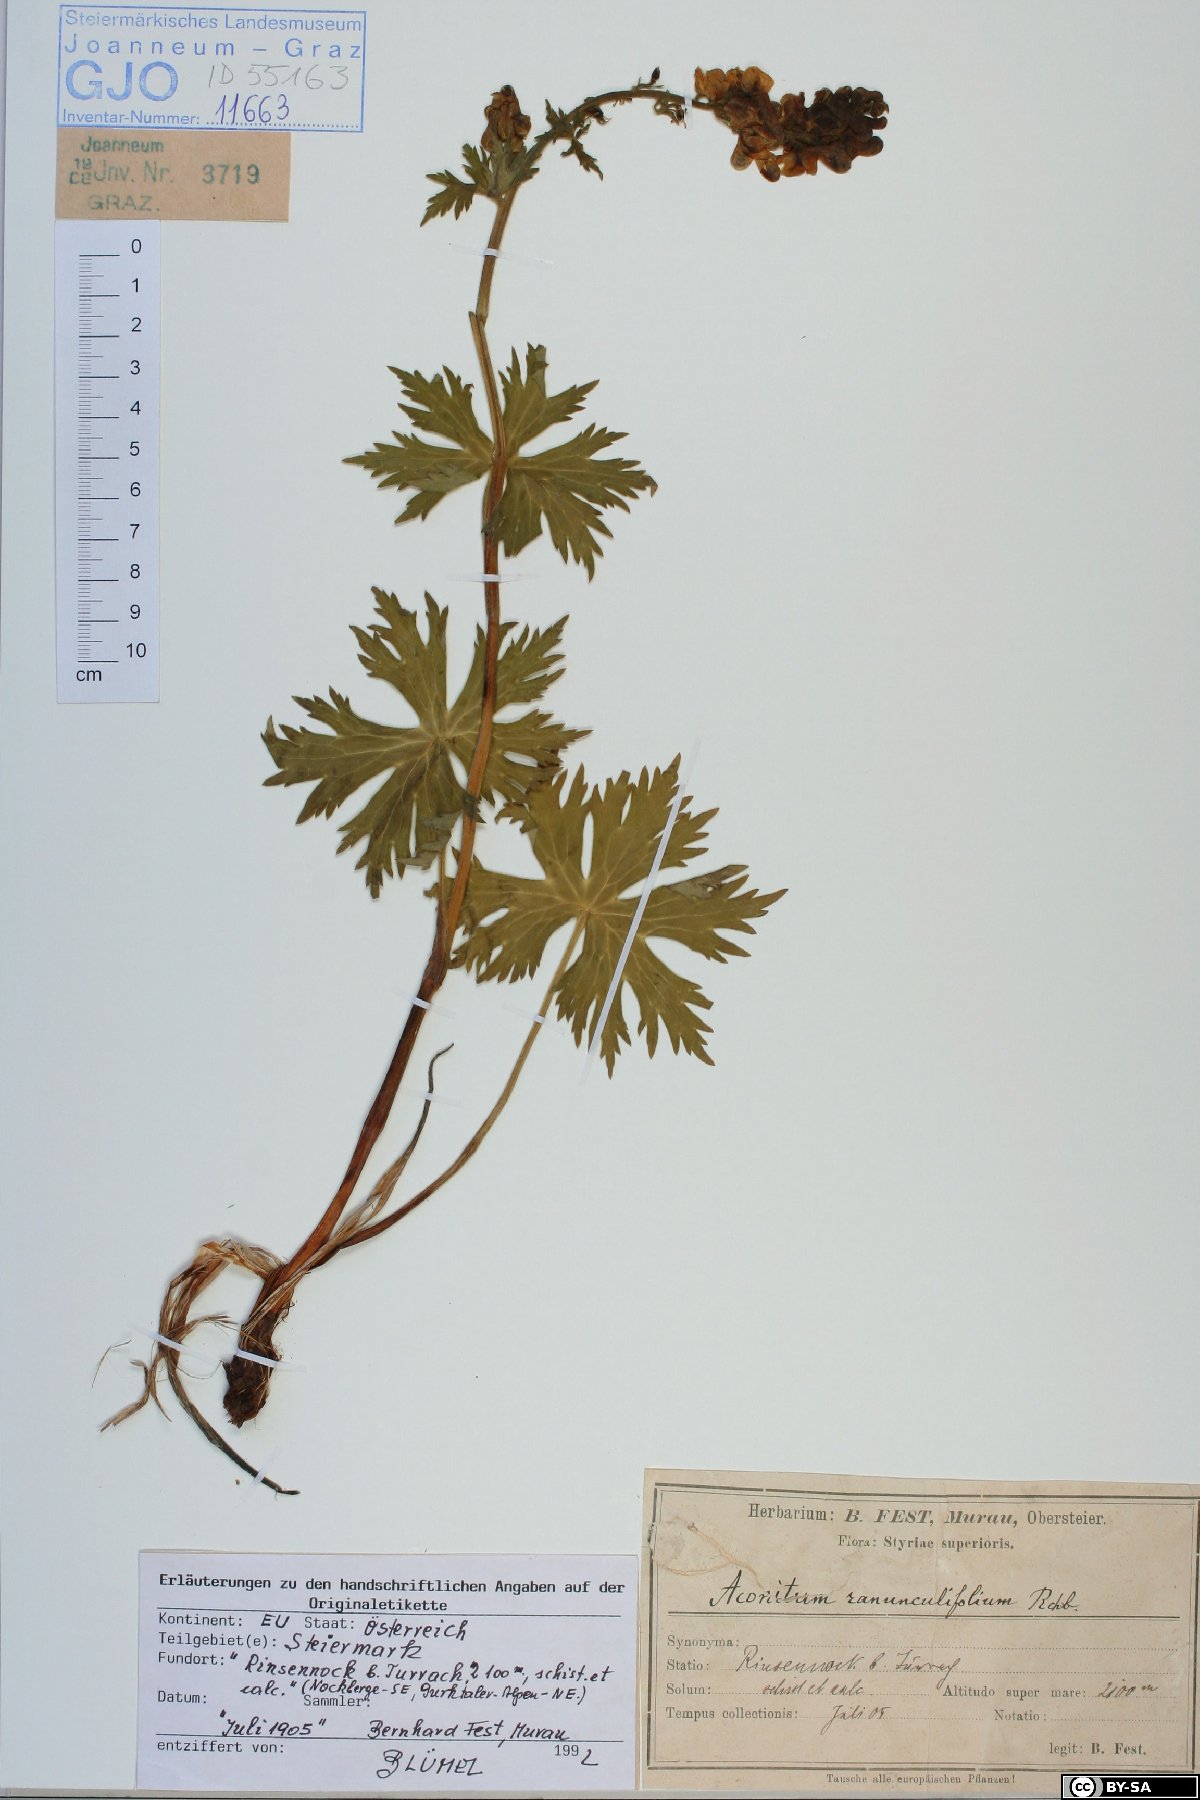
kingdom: Plantae
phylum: Tracheophyta
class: Magnoliopsida
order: Ranunculales
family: Ranunculaceae
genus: Aconitum
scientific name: Aconitum lycoctonum
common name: Wolf's-bane
